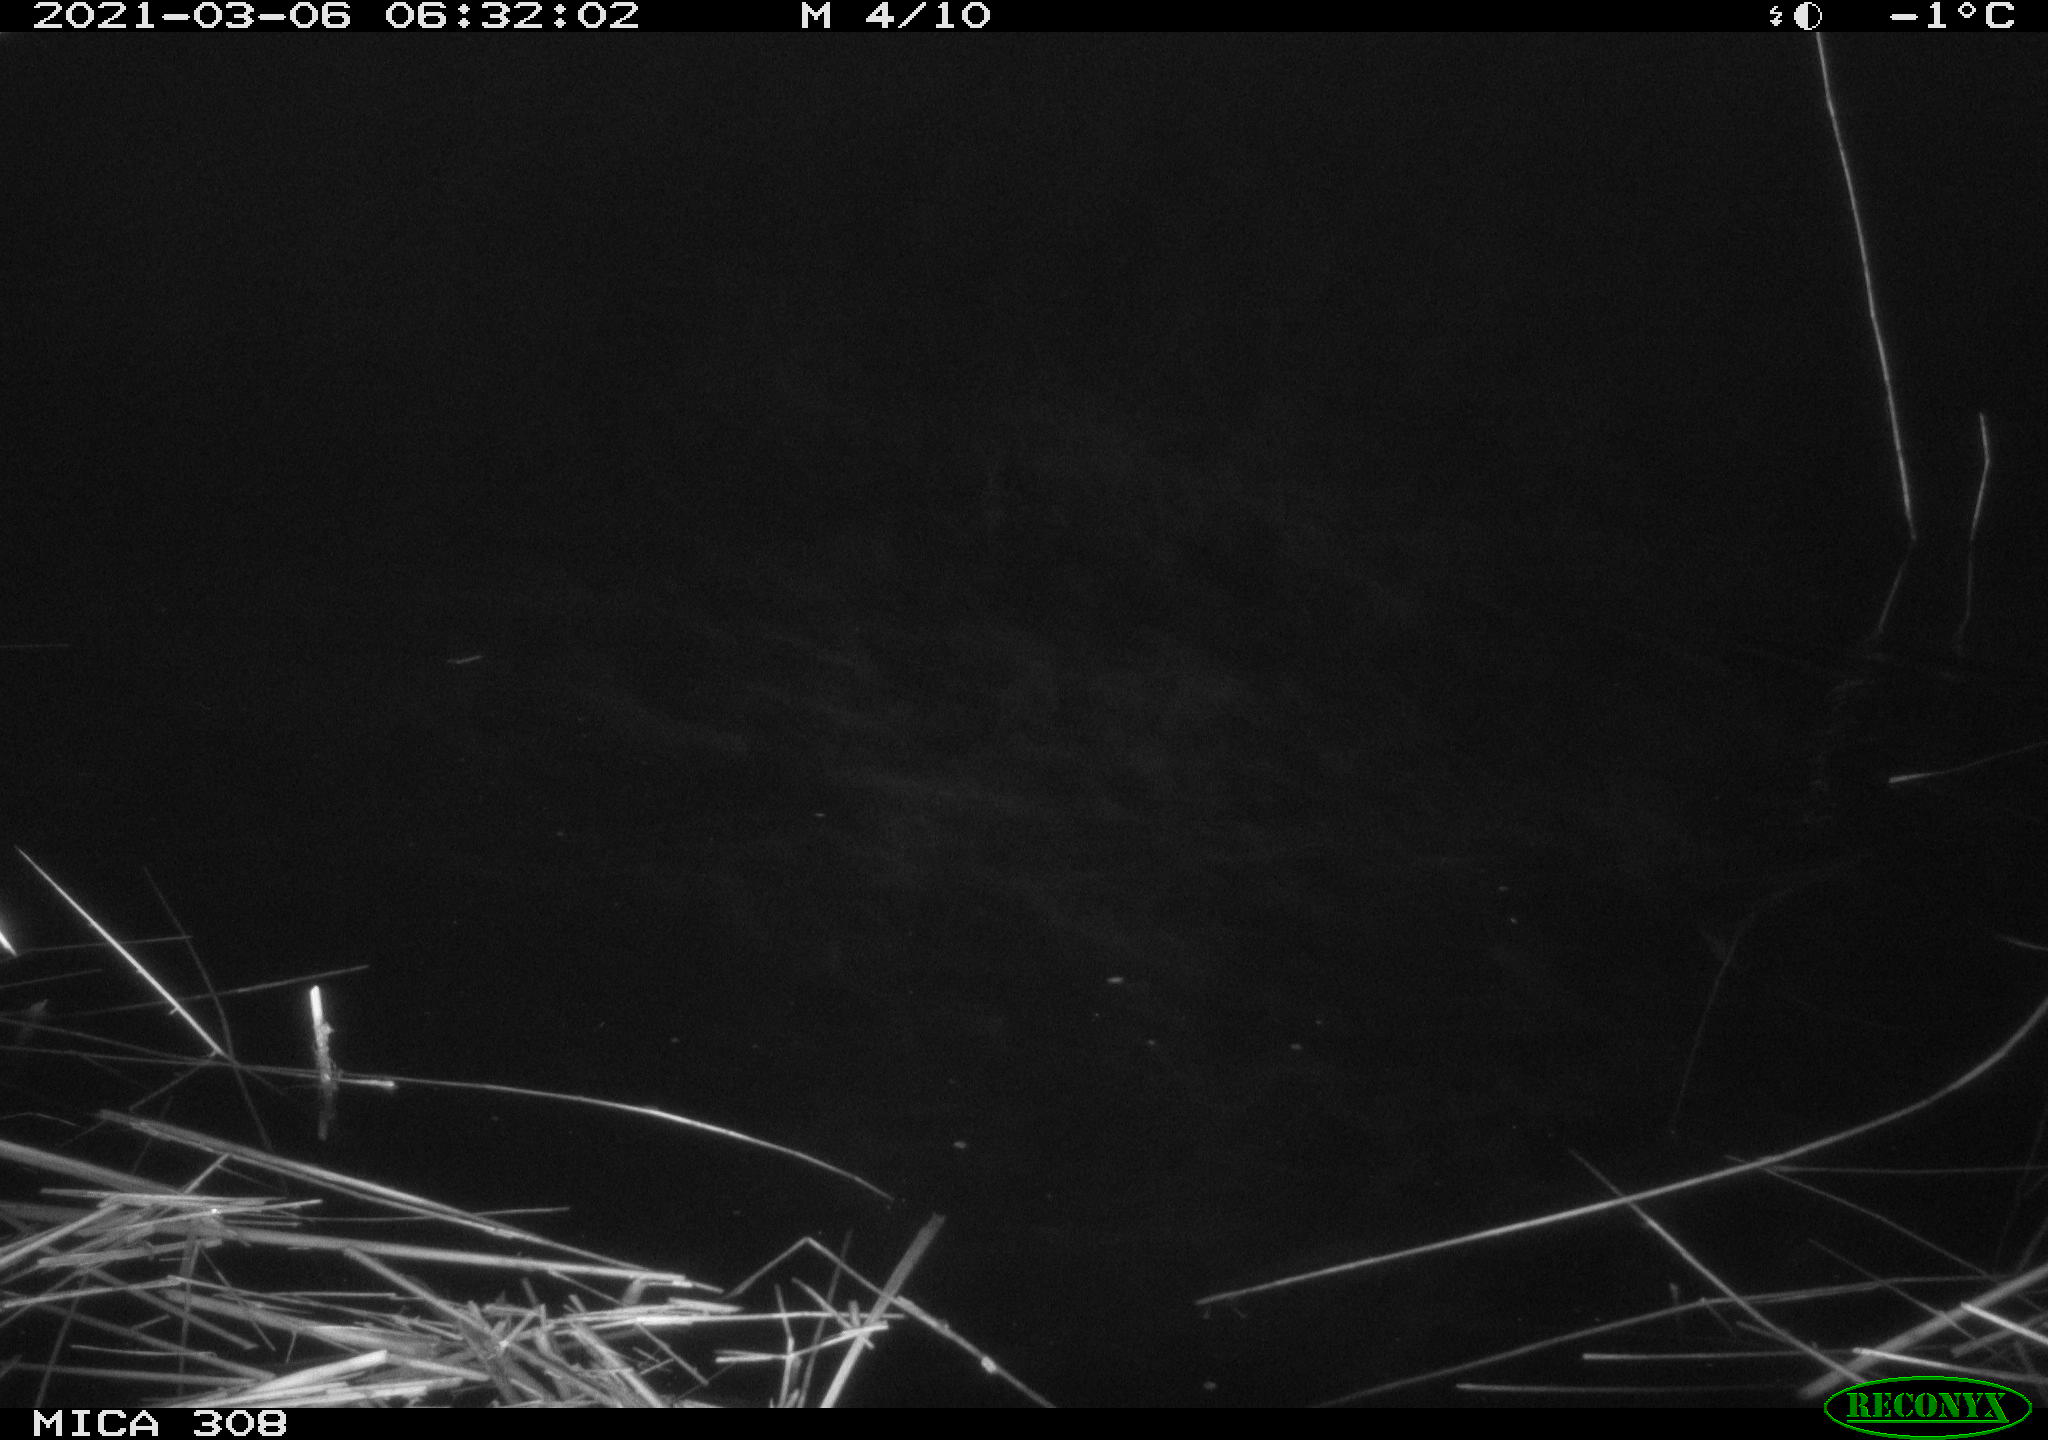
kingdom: Animalia
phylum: Chordata
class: Mammalia
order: Rodentia
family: Muridae
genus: Rattus
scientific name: Rattus norvegicus
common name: Brown rat
